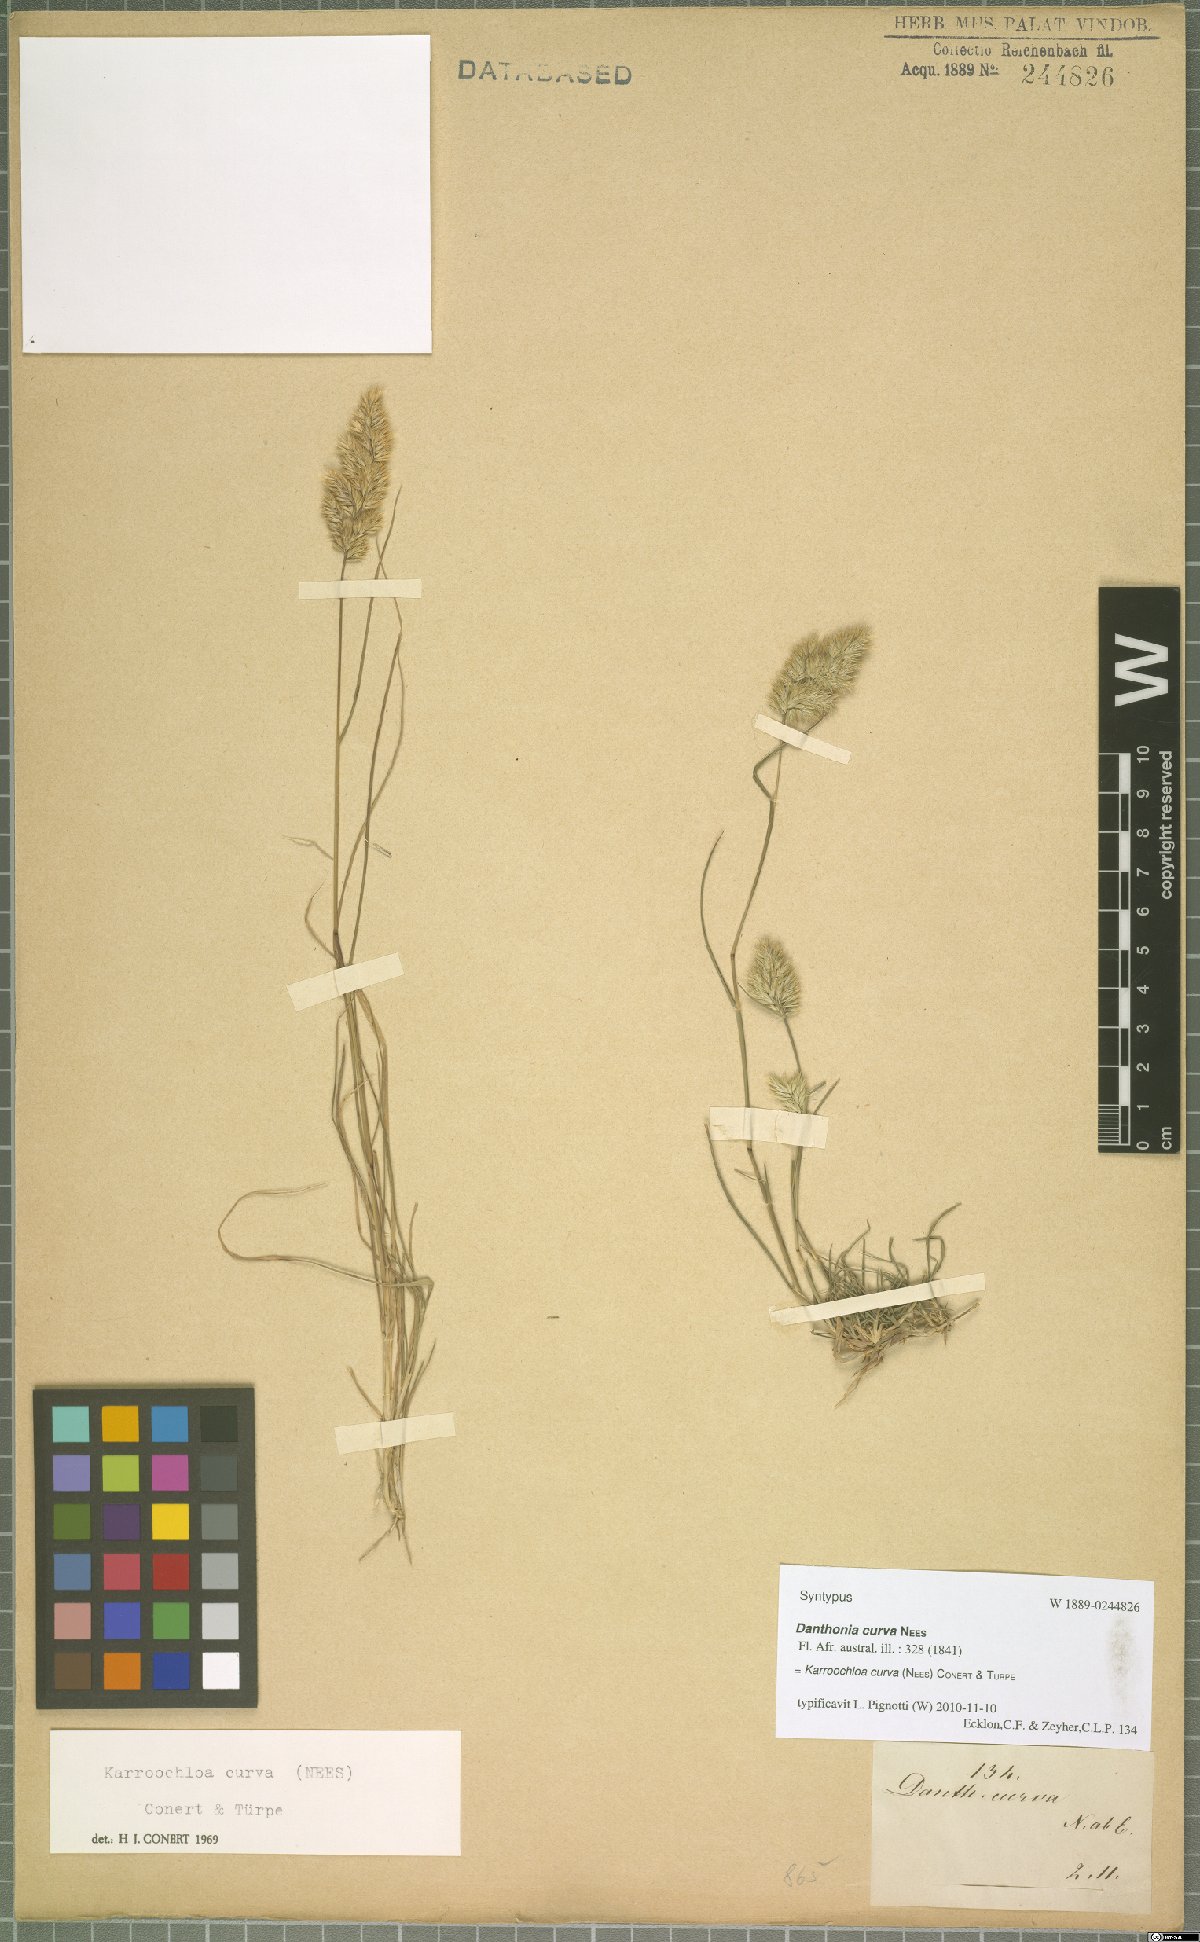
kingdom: Plantae
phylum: Tracheophyta
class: Liliopsida
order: Poales
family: Poaceae
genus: Tribolium
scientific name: Tribolium curvum
